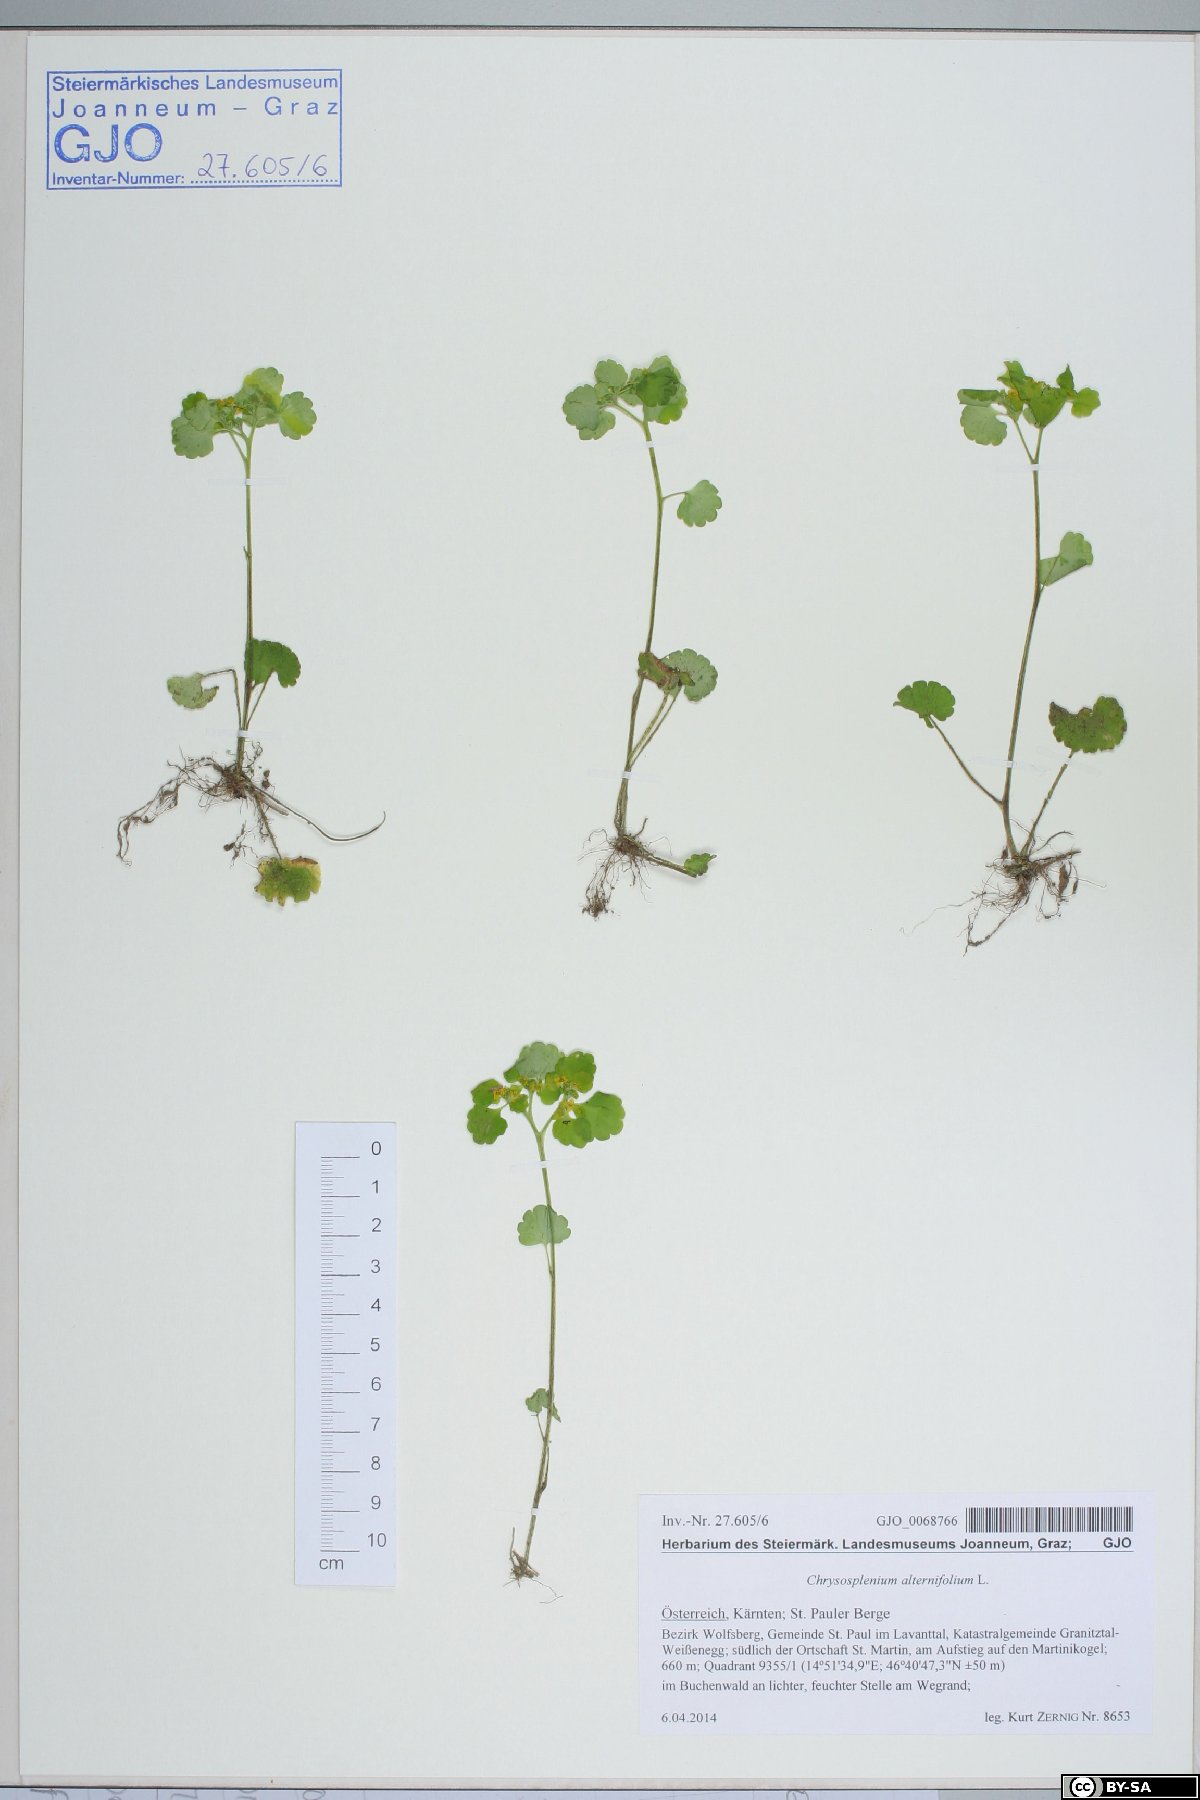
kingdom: Plantae
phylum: Tracheophyta
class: Magnoliopsida
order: Saxifragales
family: Saxifragaceae
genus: Chrysosplenium
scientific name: Chrysosplenium alternifolium
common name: Alternate-leaved golden-saxifrage
